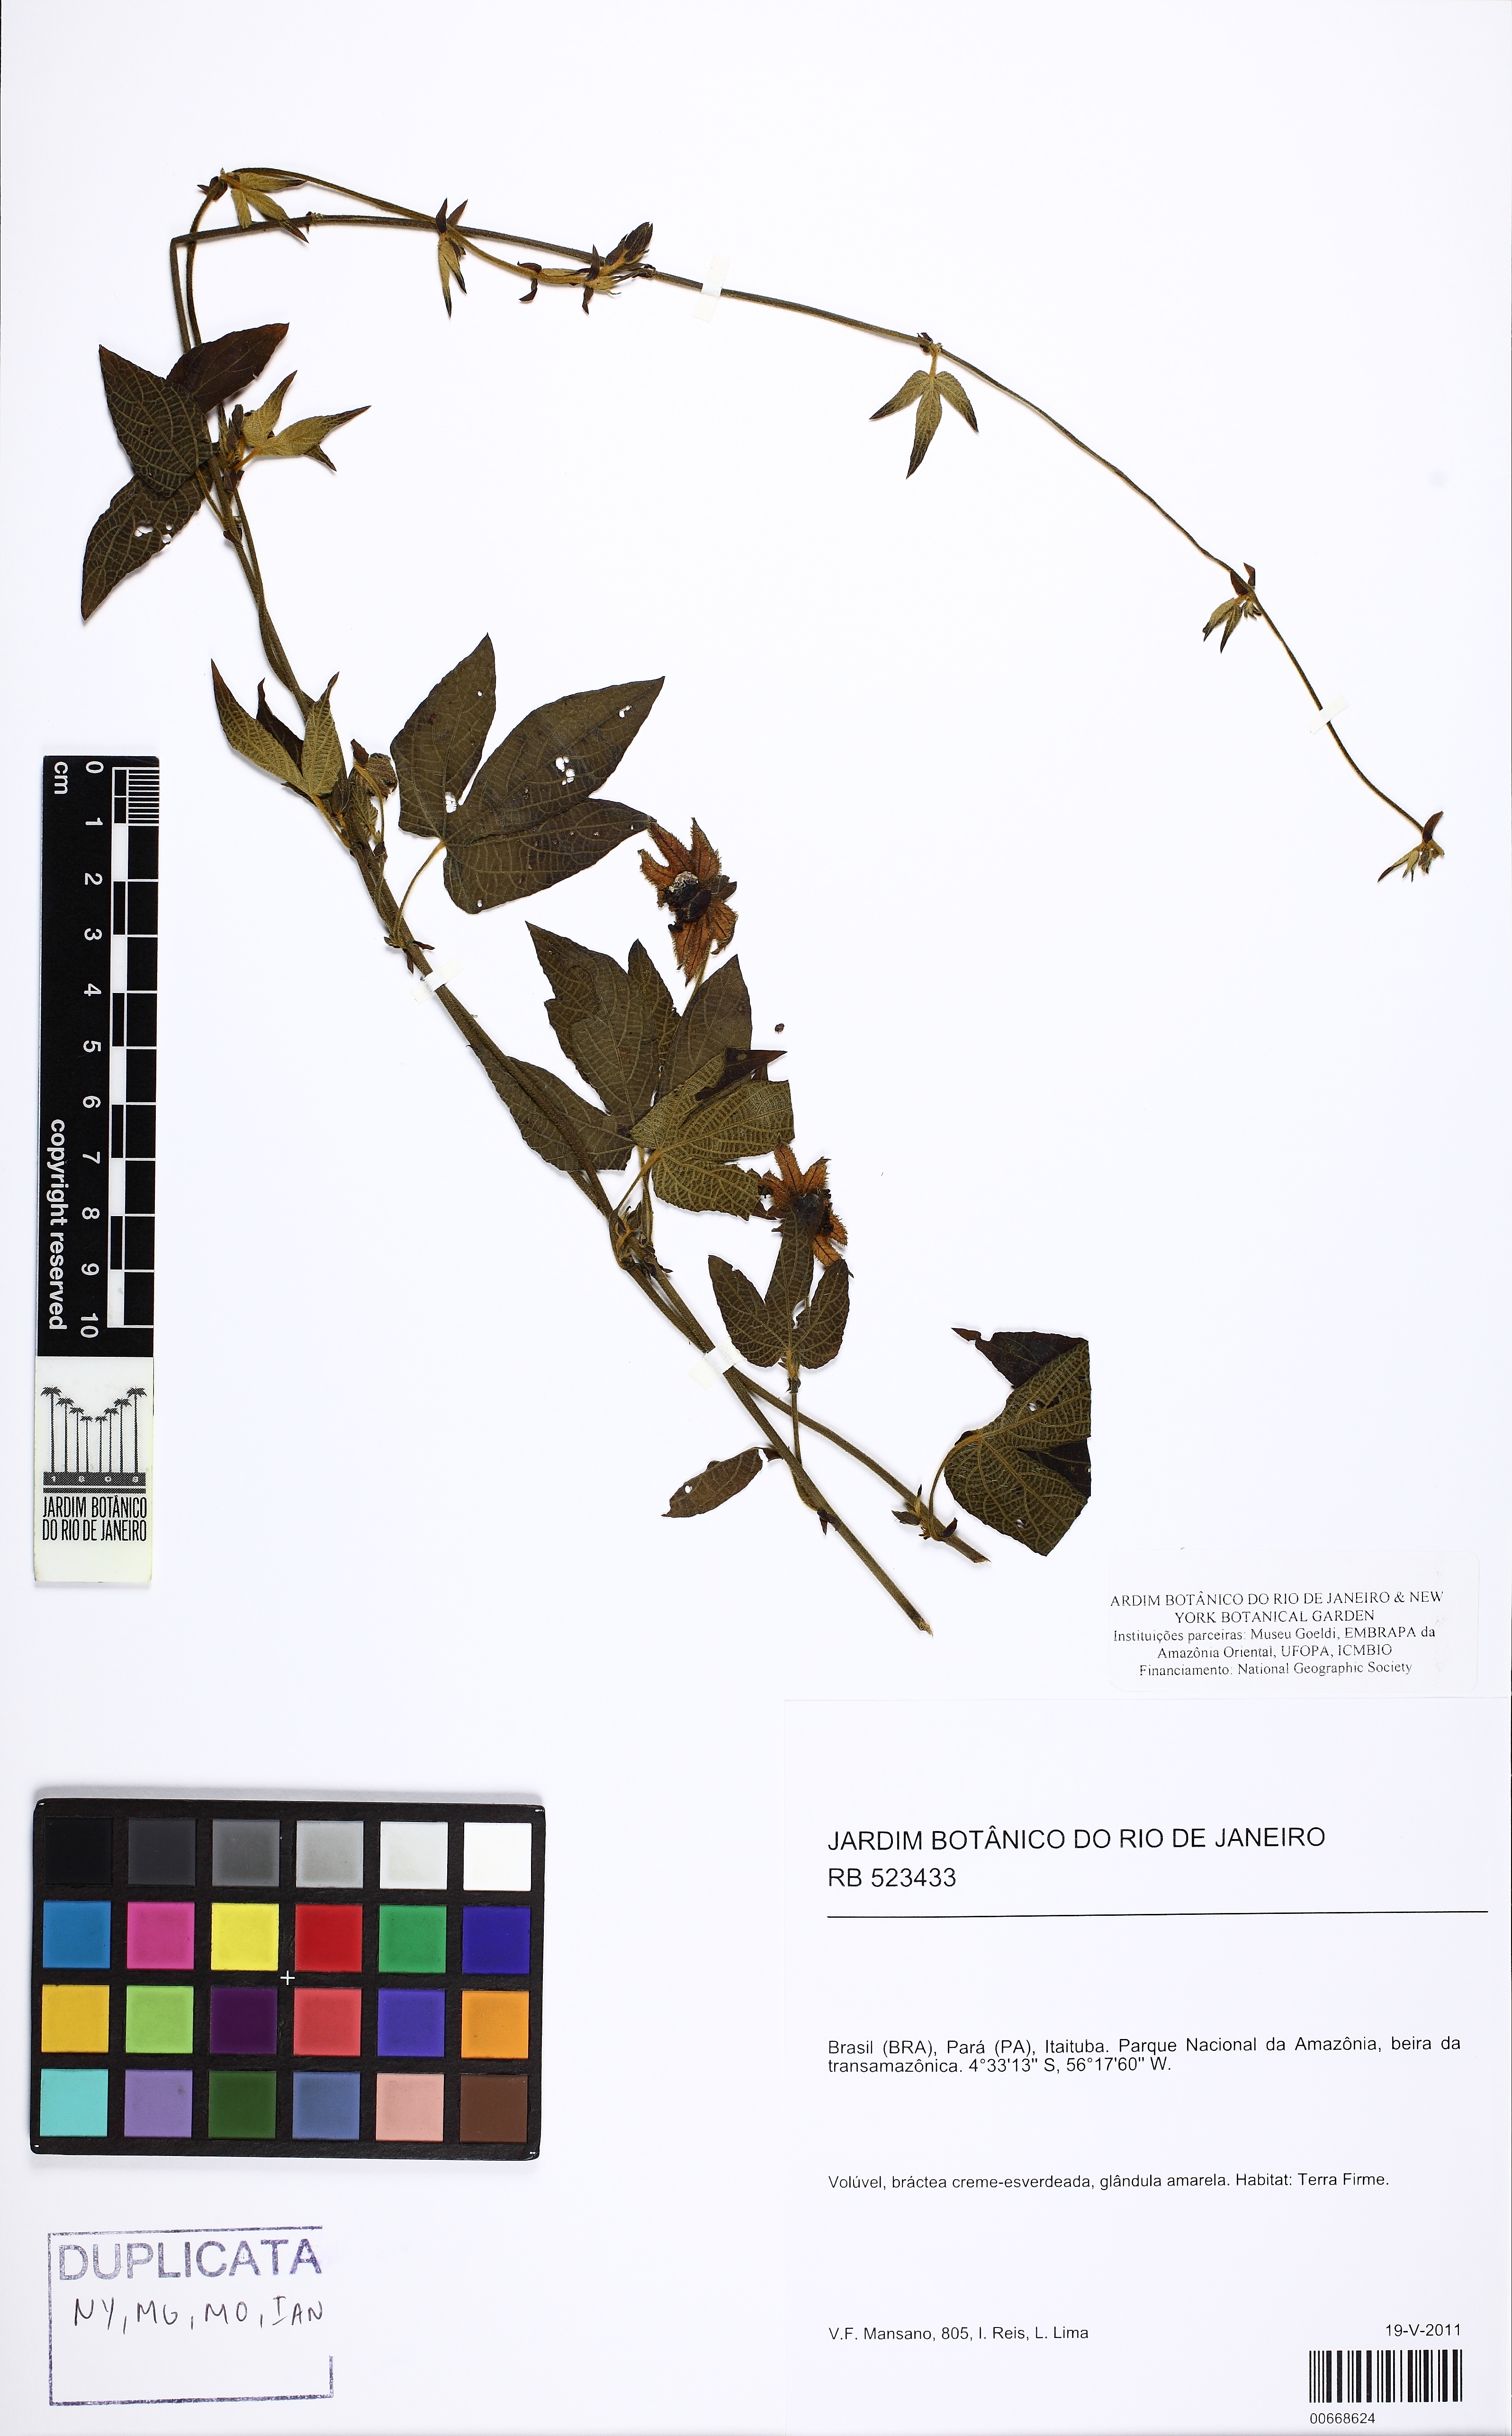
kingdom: Plantae
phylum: Tracheophyta
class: Magnoliopsida
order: Malpighiales
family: Euphorbiaceae
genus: Dalechampia
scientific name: Dalechampia
